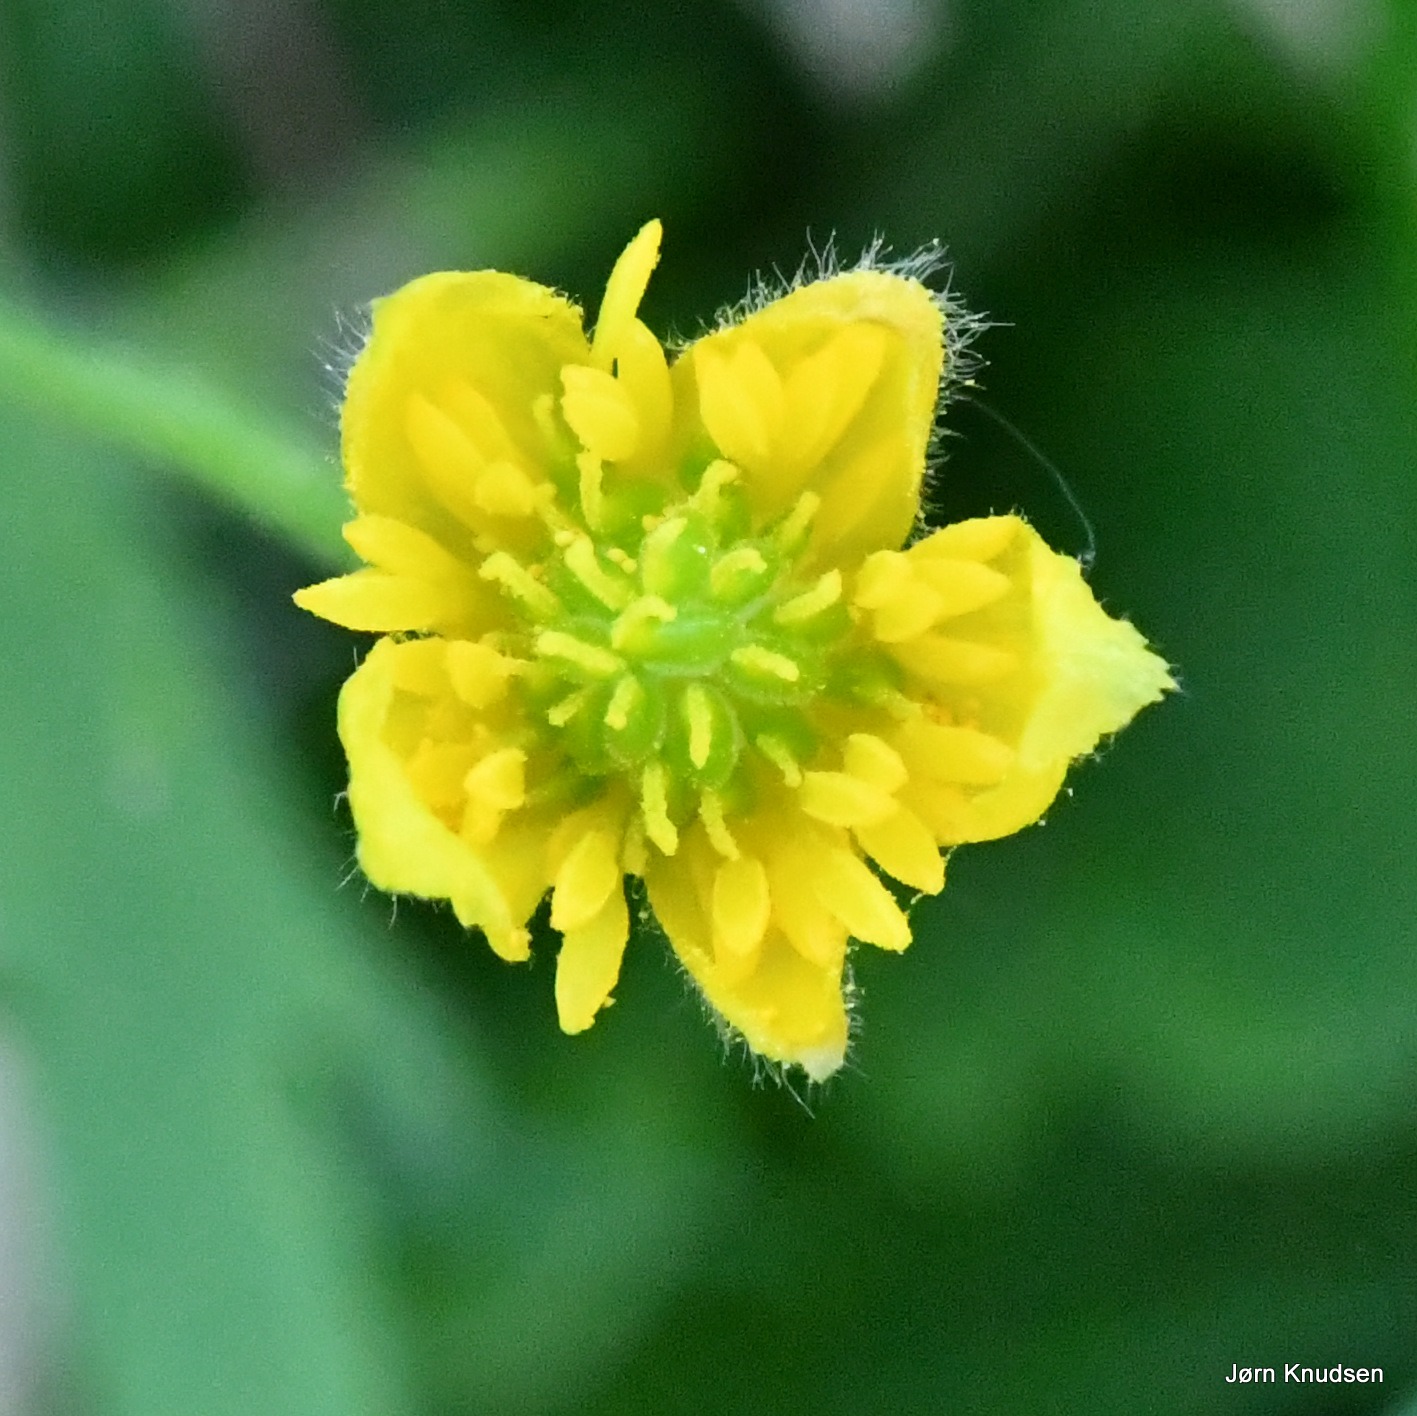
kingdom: Plantae
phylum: Tracheophyta
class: Magnoliopsida
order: Ranunculales
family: Ranunculaceae
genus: Ranunculus
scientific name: Ranunculus auricomus
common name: Nyrebladet ranunkel
